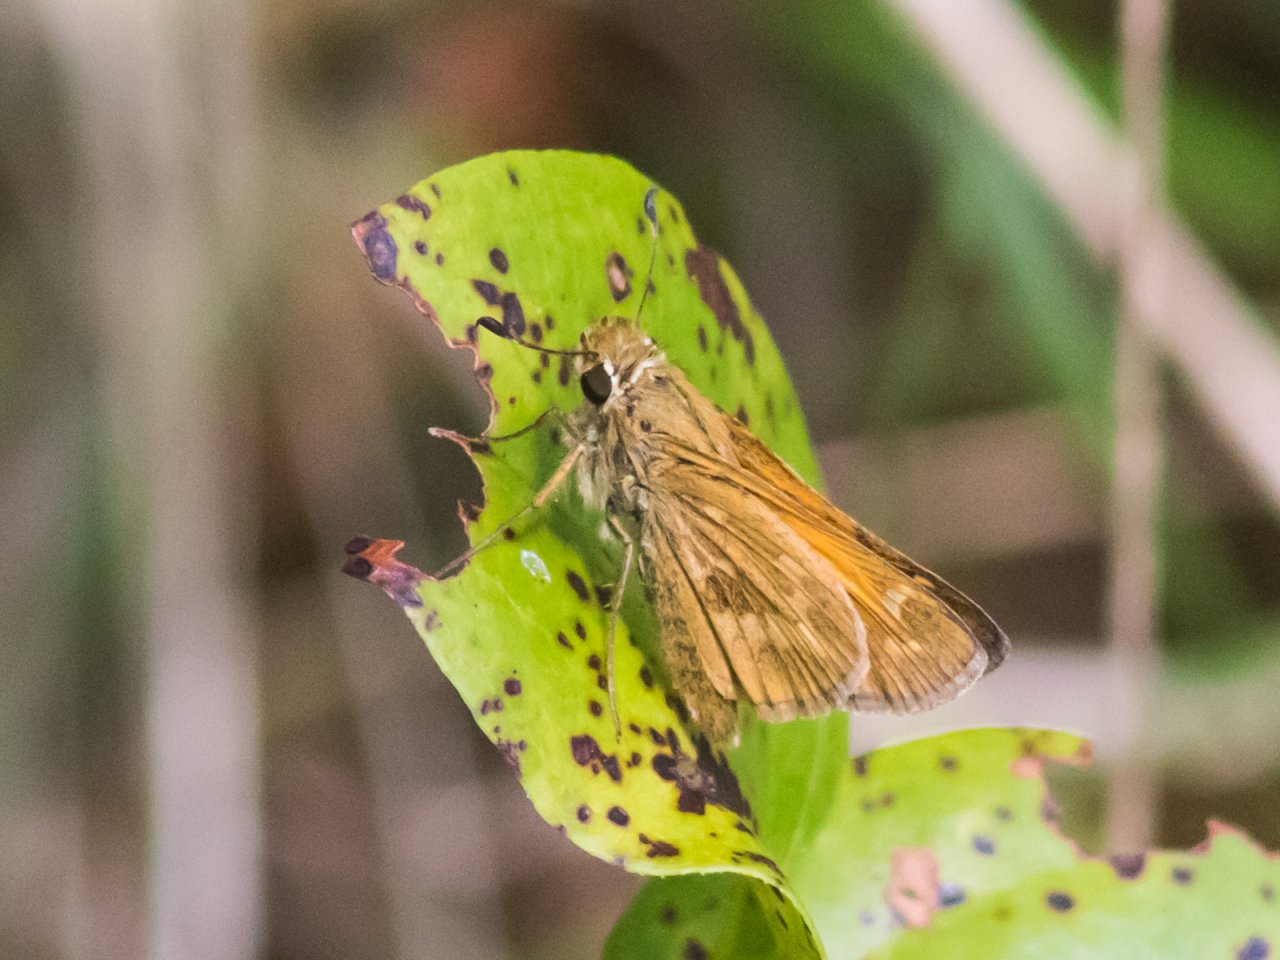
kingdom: Animalia
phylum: Arthropoda
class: Insecta
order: Lepidoptera
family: Hesperiidae
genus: Atalopedes
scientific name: Atalopedes campestris
